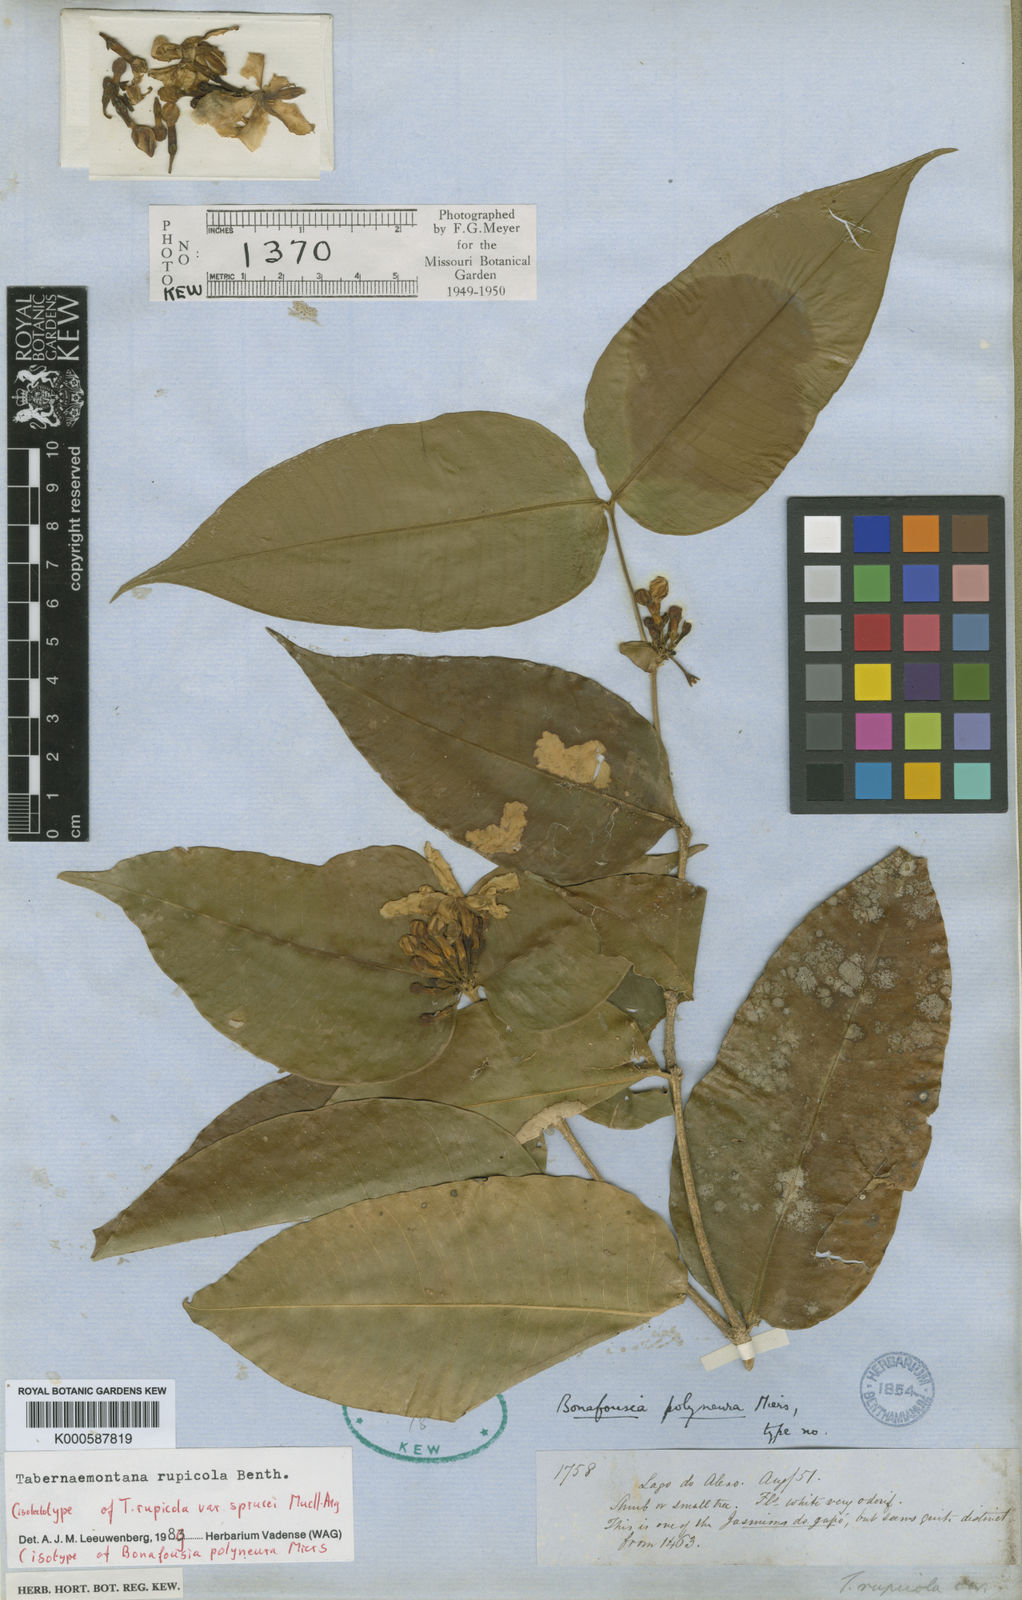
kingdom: Plantae
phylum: Tracheophyta
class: Magnoliopsida
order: Gentianales
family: Apocynaceae
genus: Tabernaemontana
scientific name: Tabernaemontana rupicola
